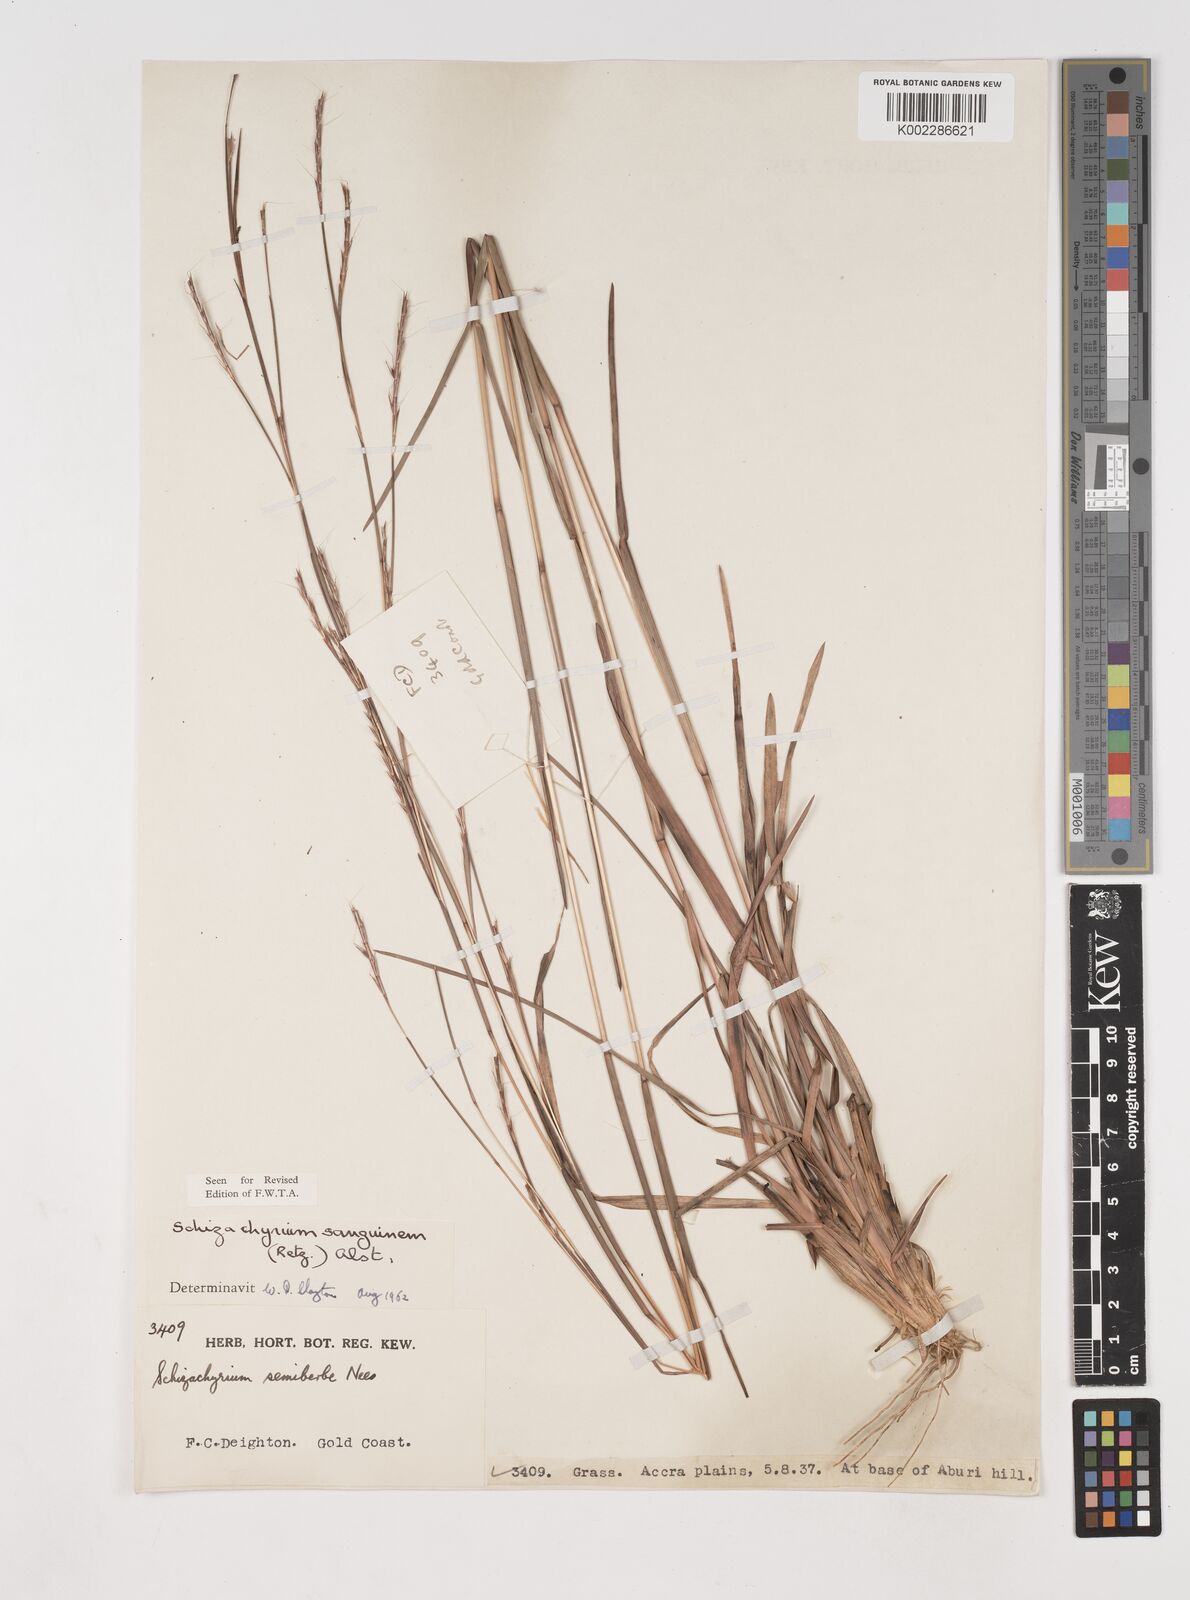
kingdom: Plantae
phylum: Tracheophyta
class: Liliopsida
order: Poales
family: Poaceae
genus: Schizachyrium
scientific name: Schizachyrium sanguineum
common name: Crimson bluestem
